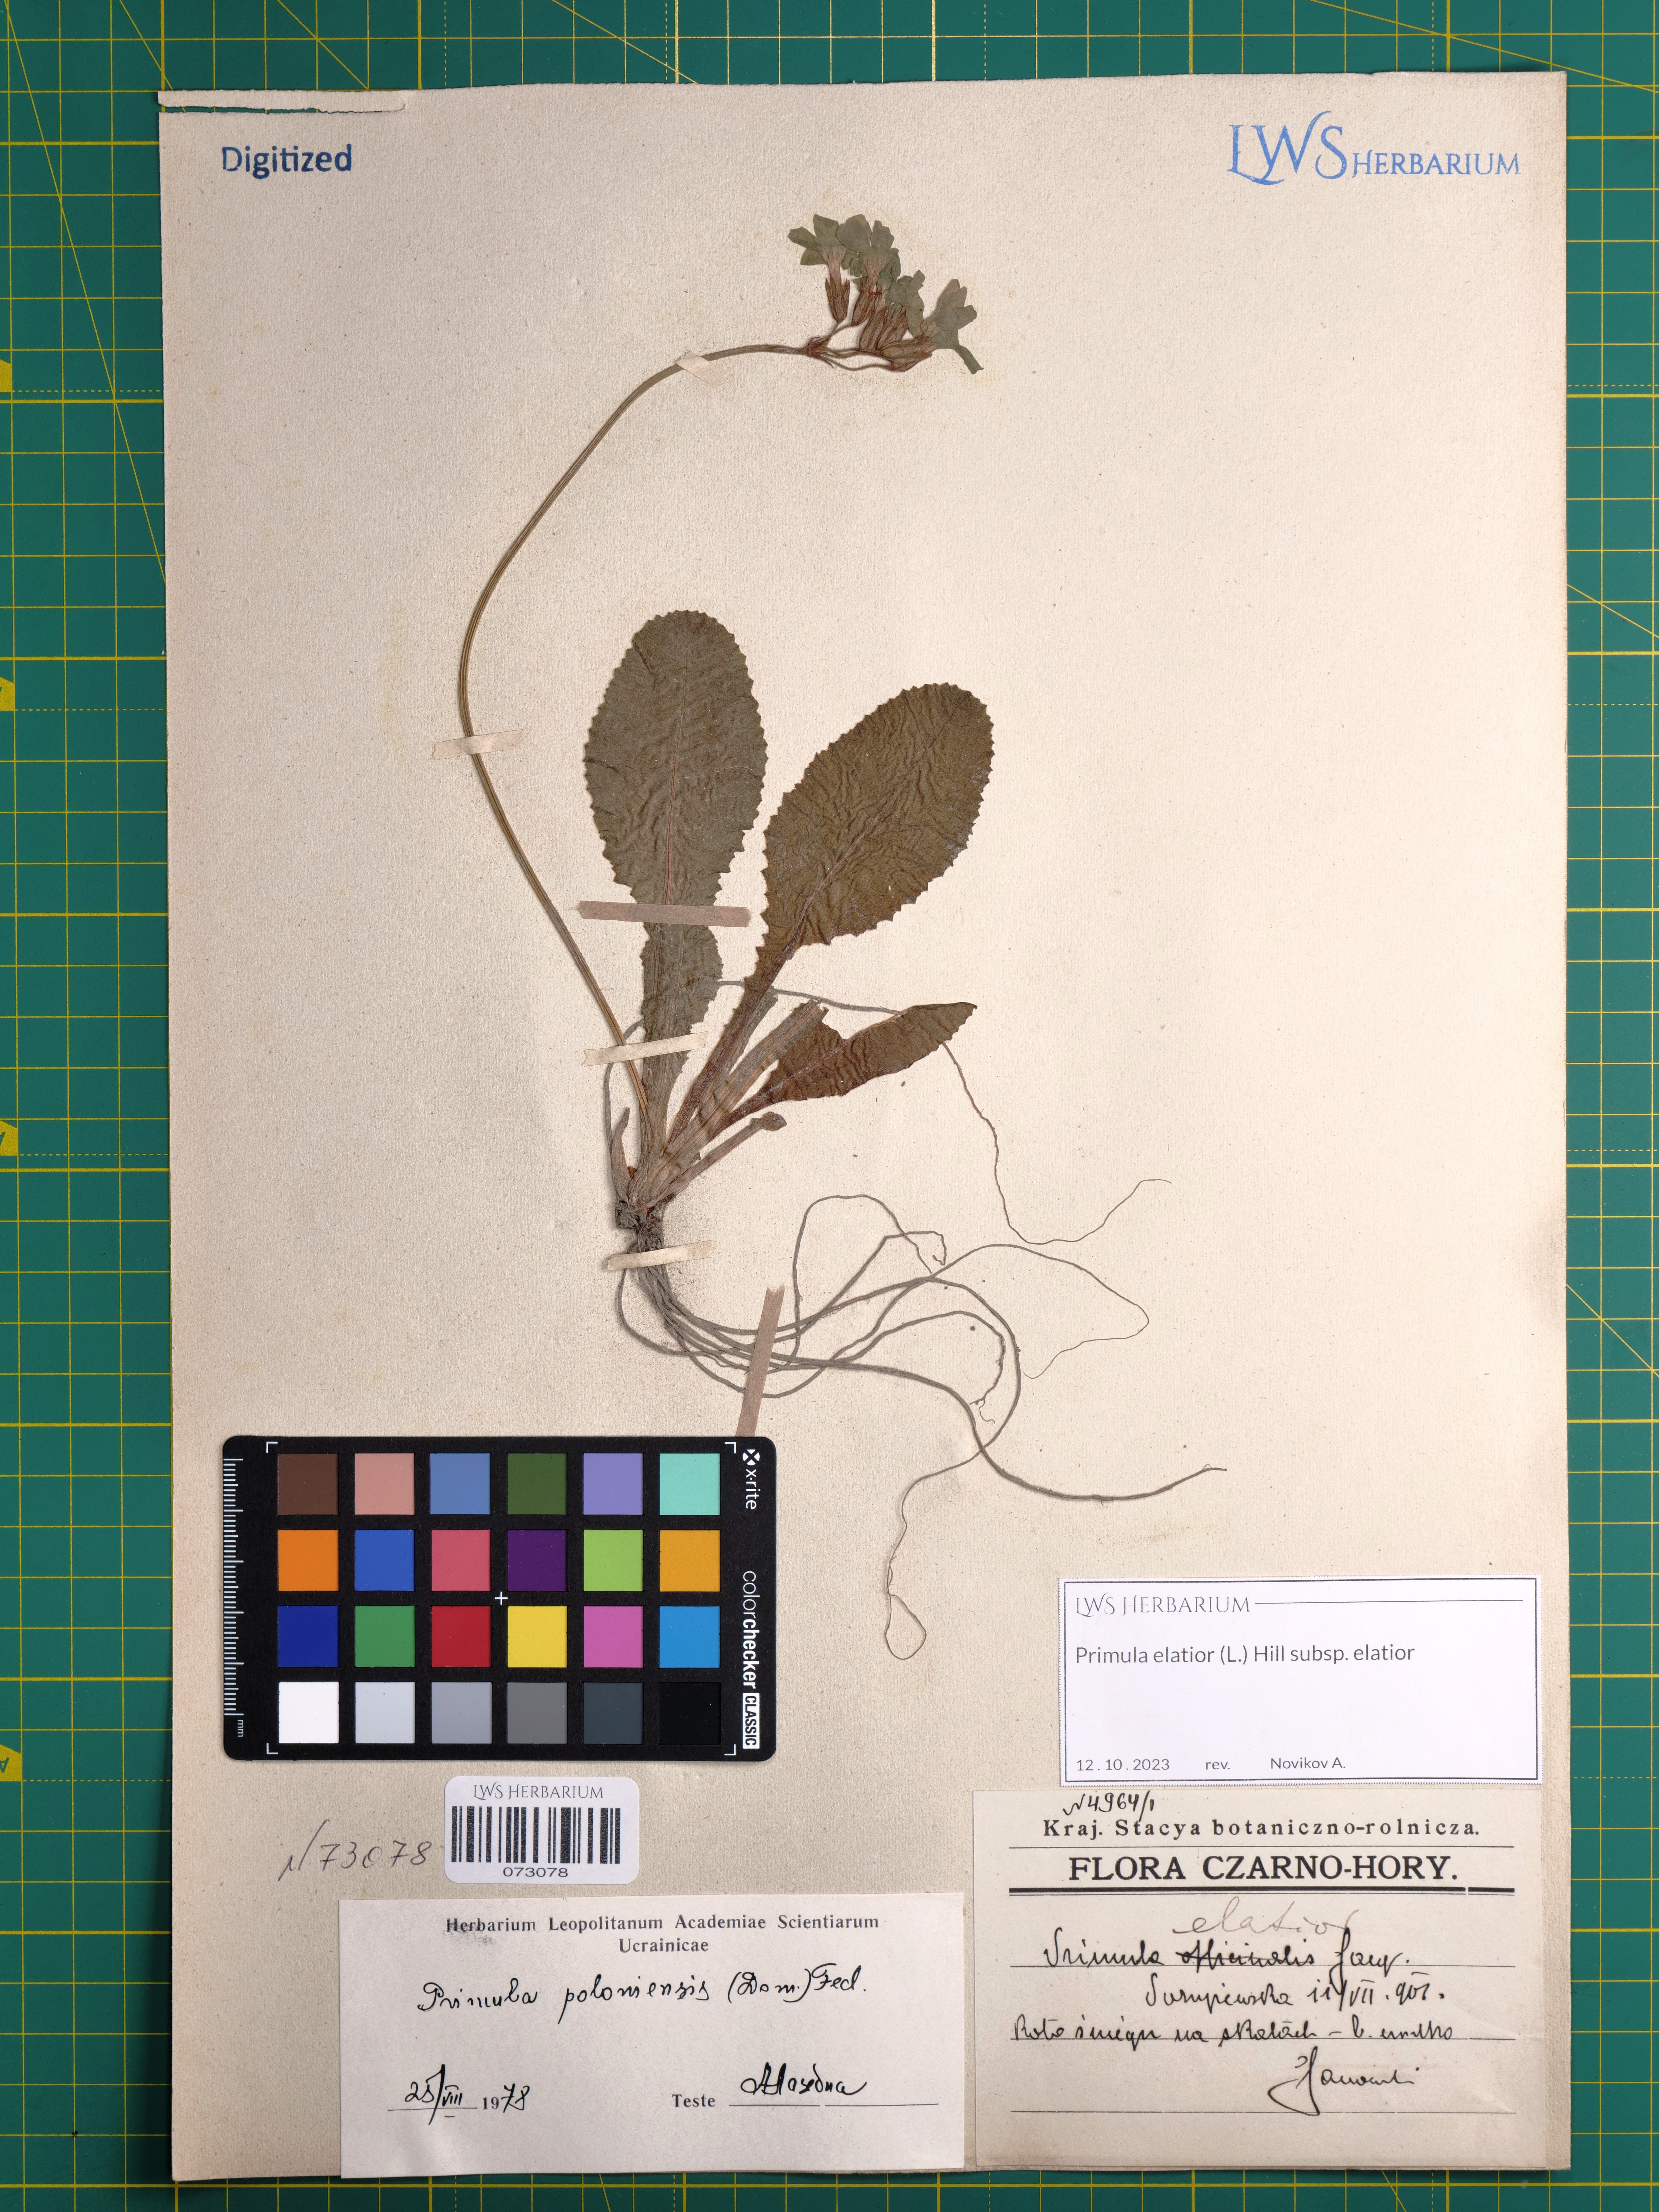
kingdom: Plantae
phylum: Tracheophyta
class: Magnoliopsida
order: Ericales
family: Primulaceae
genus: Primula
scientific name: Primula elatior
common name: Oxlip
